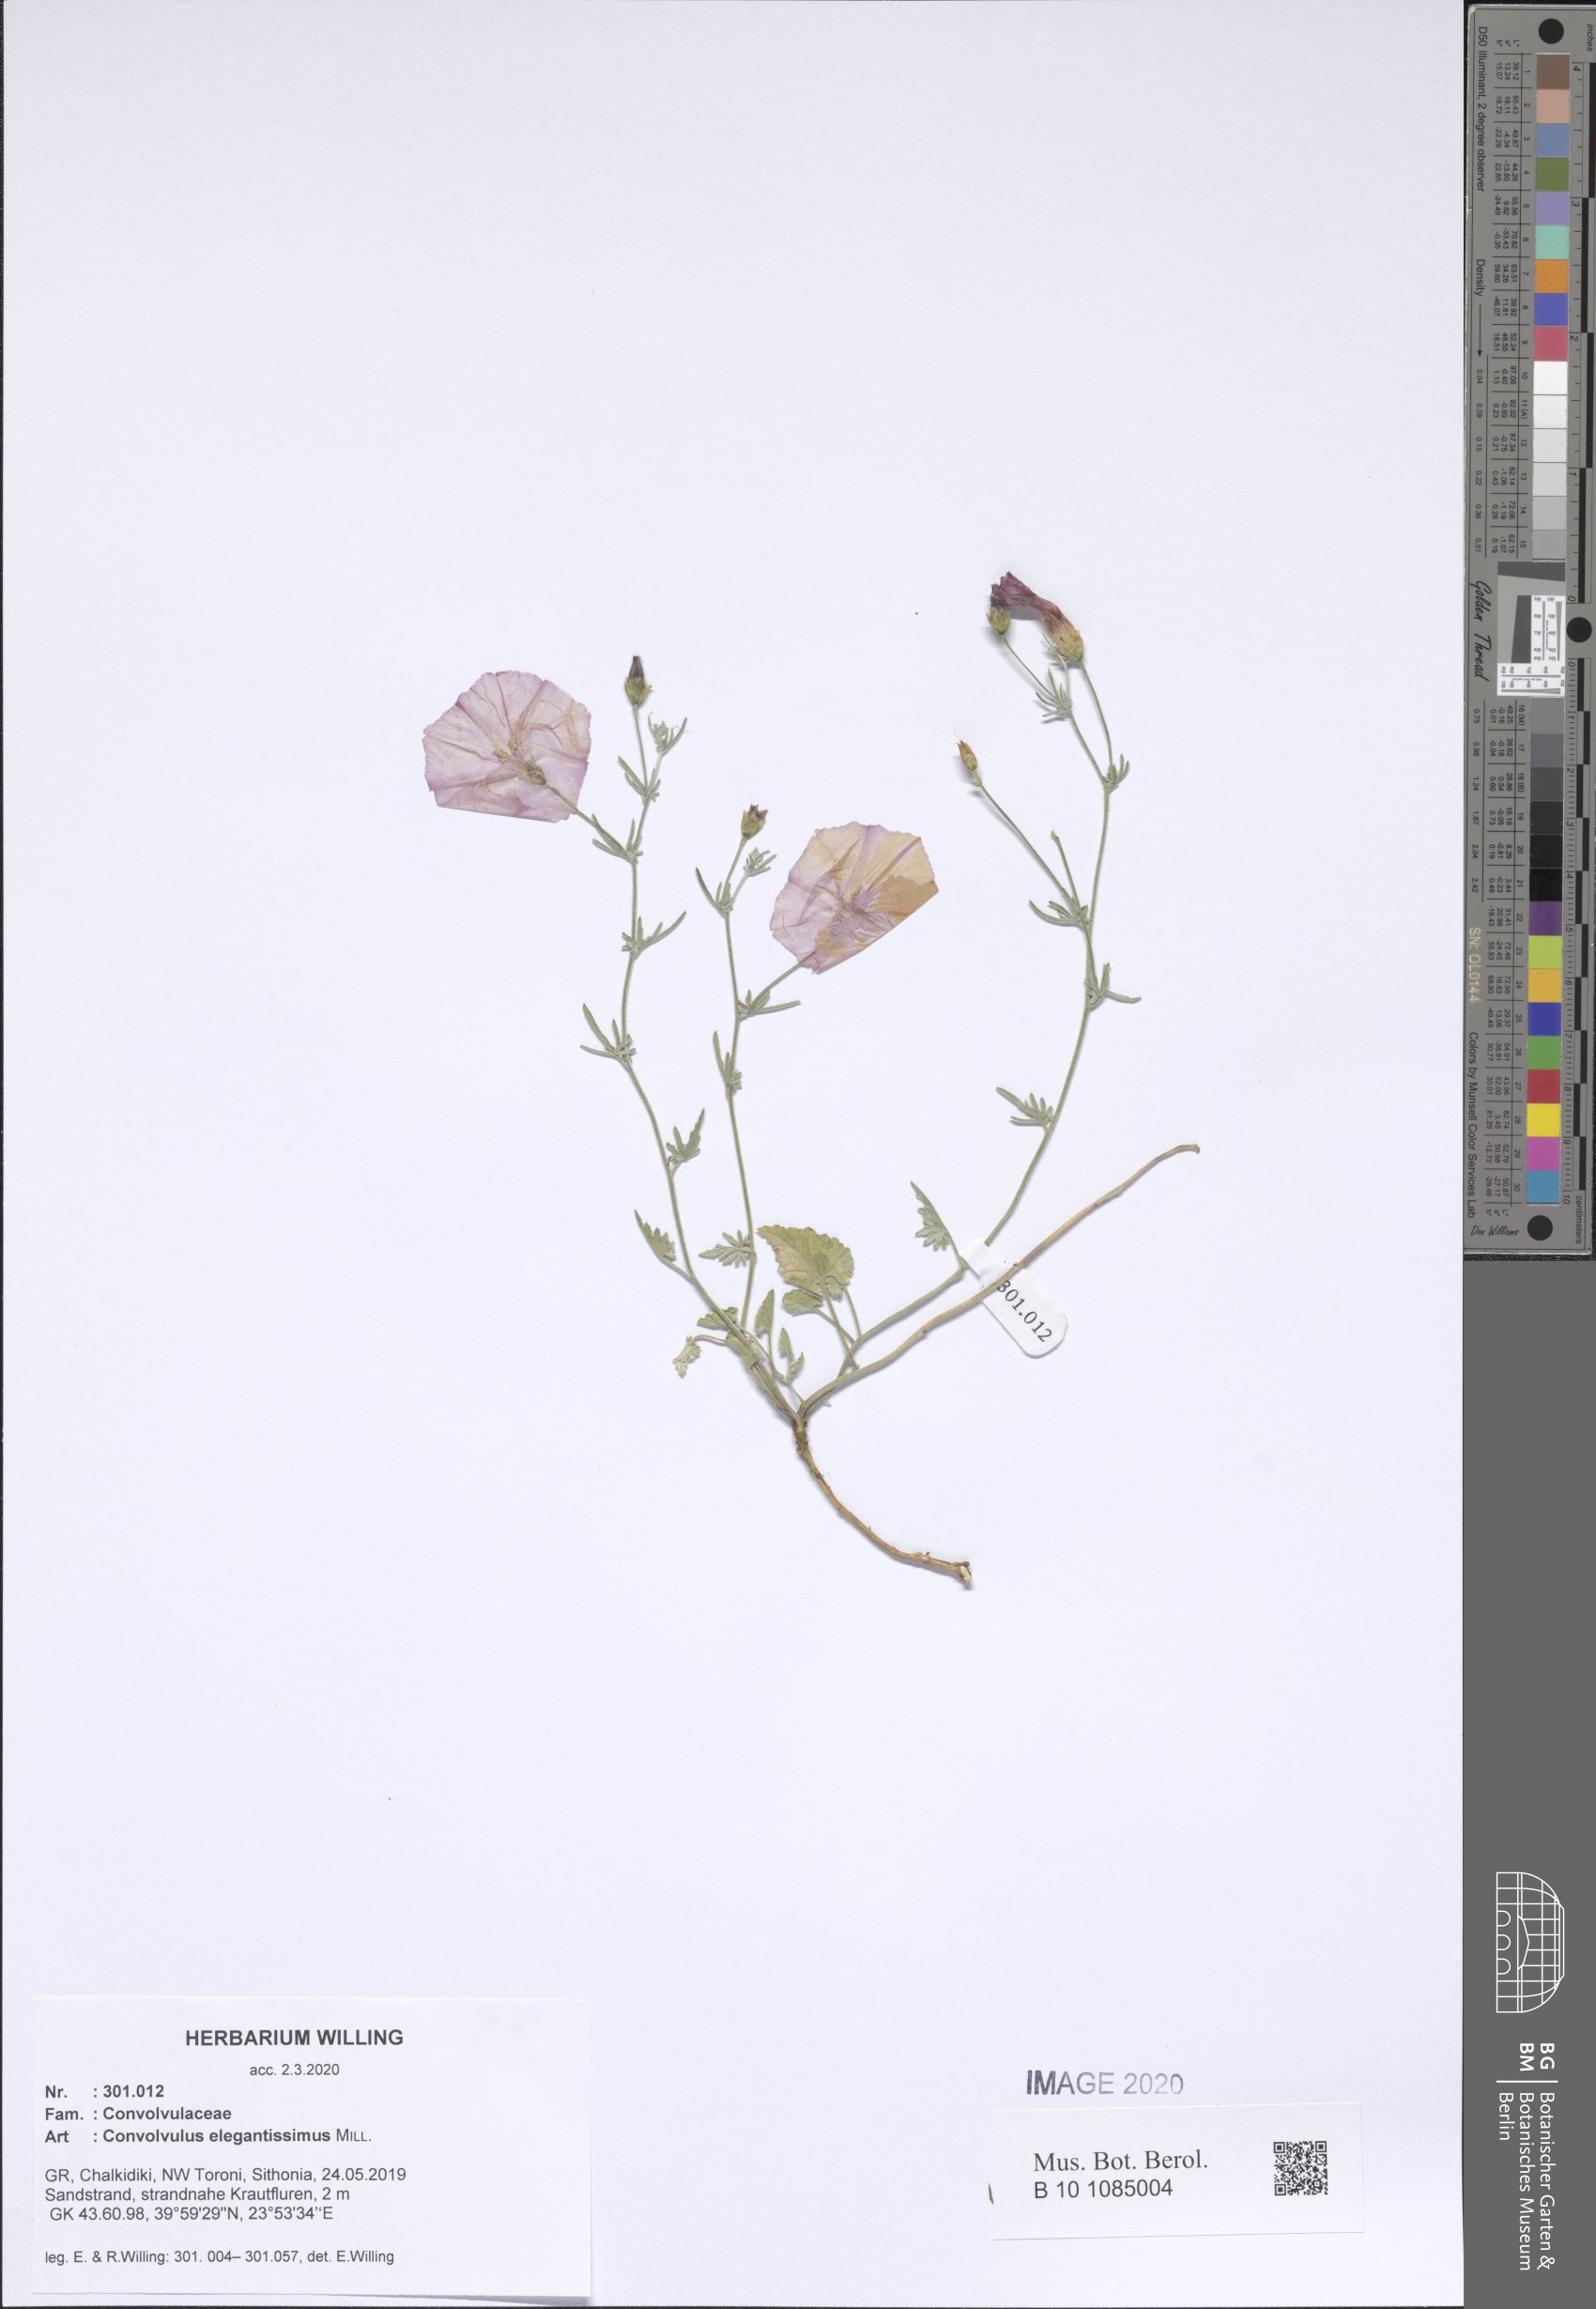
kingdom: Plantae
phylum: Tracheophyta
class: Magnoliopsida
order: Solanales
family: Convolvulaceae
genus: Convolvulus
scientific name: Convolvulus elegantissimus
